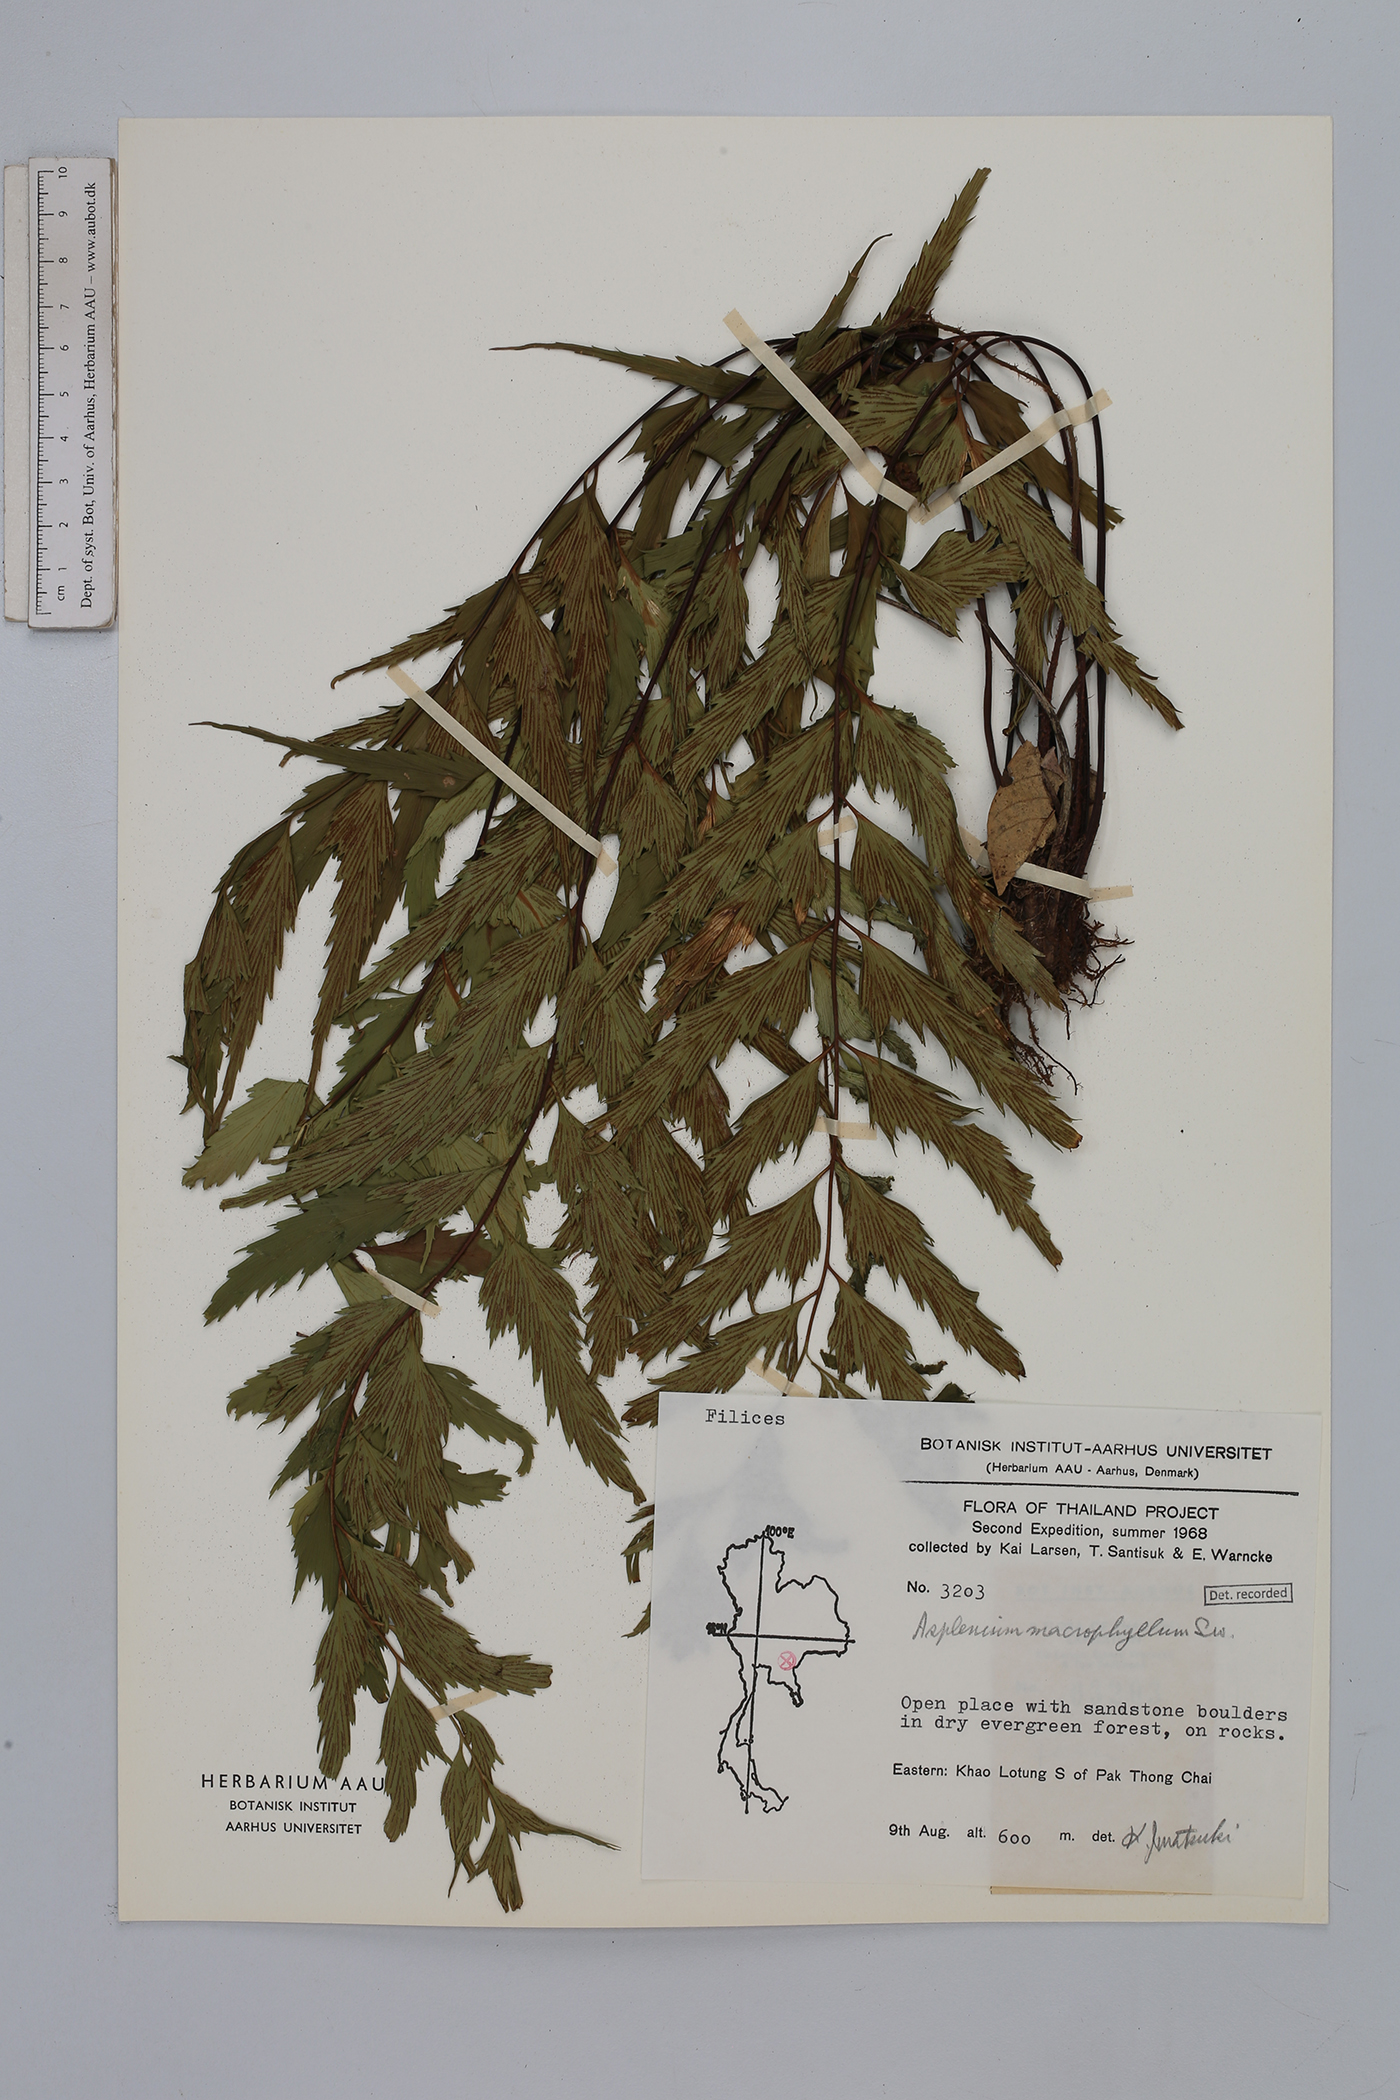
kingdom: Plantae
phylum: Tracheophyta
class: Polypodiopsida
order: Polypodiales
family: Aspleniaceae
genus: Asplenium
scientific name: Asplenium macrophyllum
